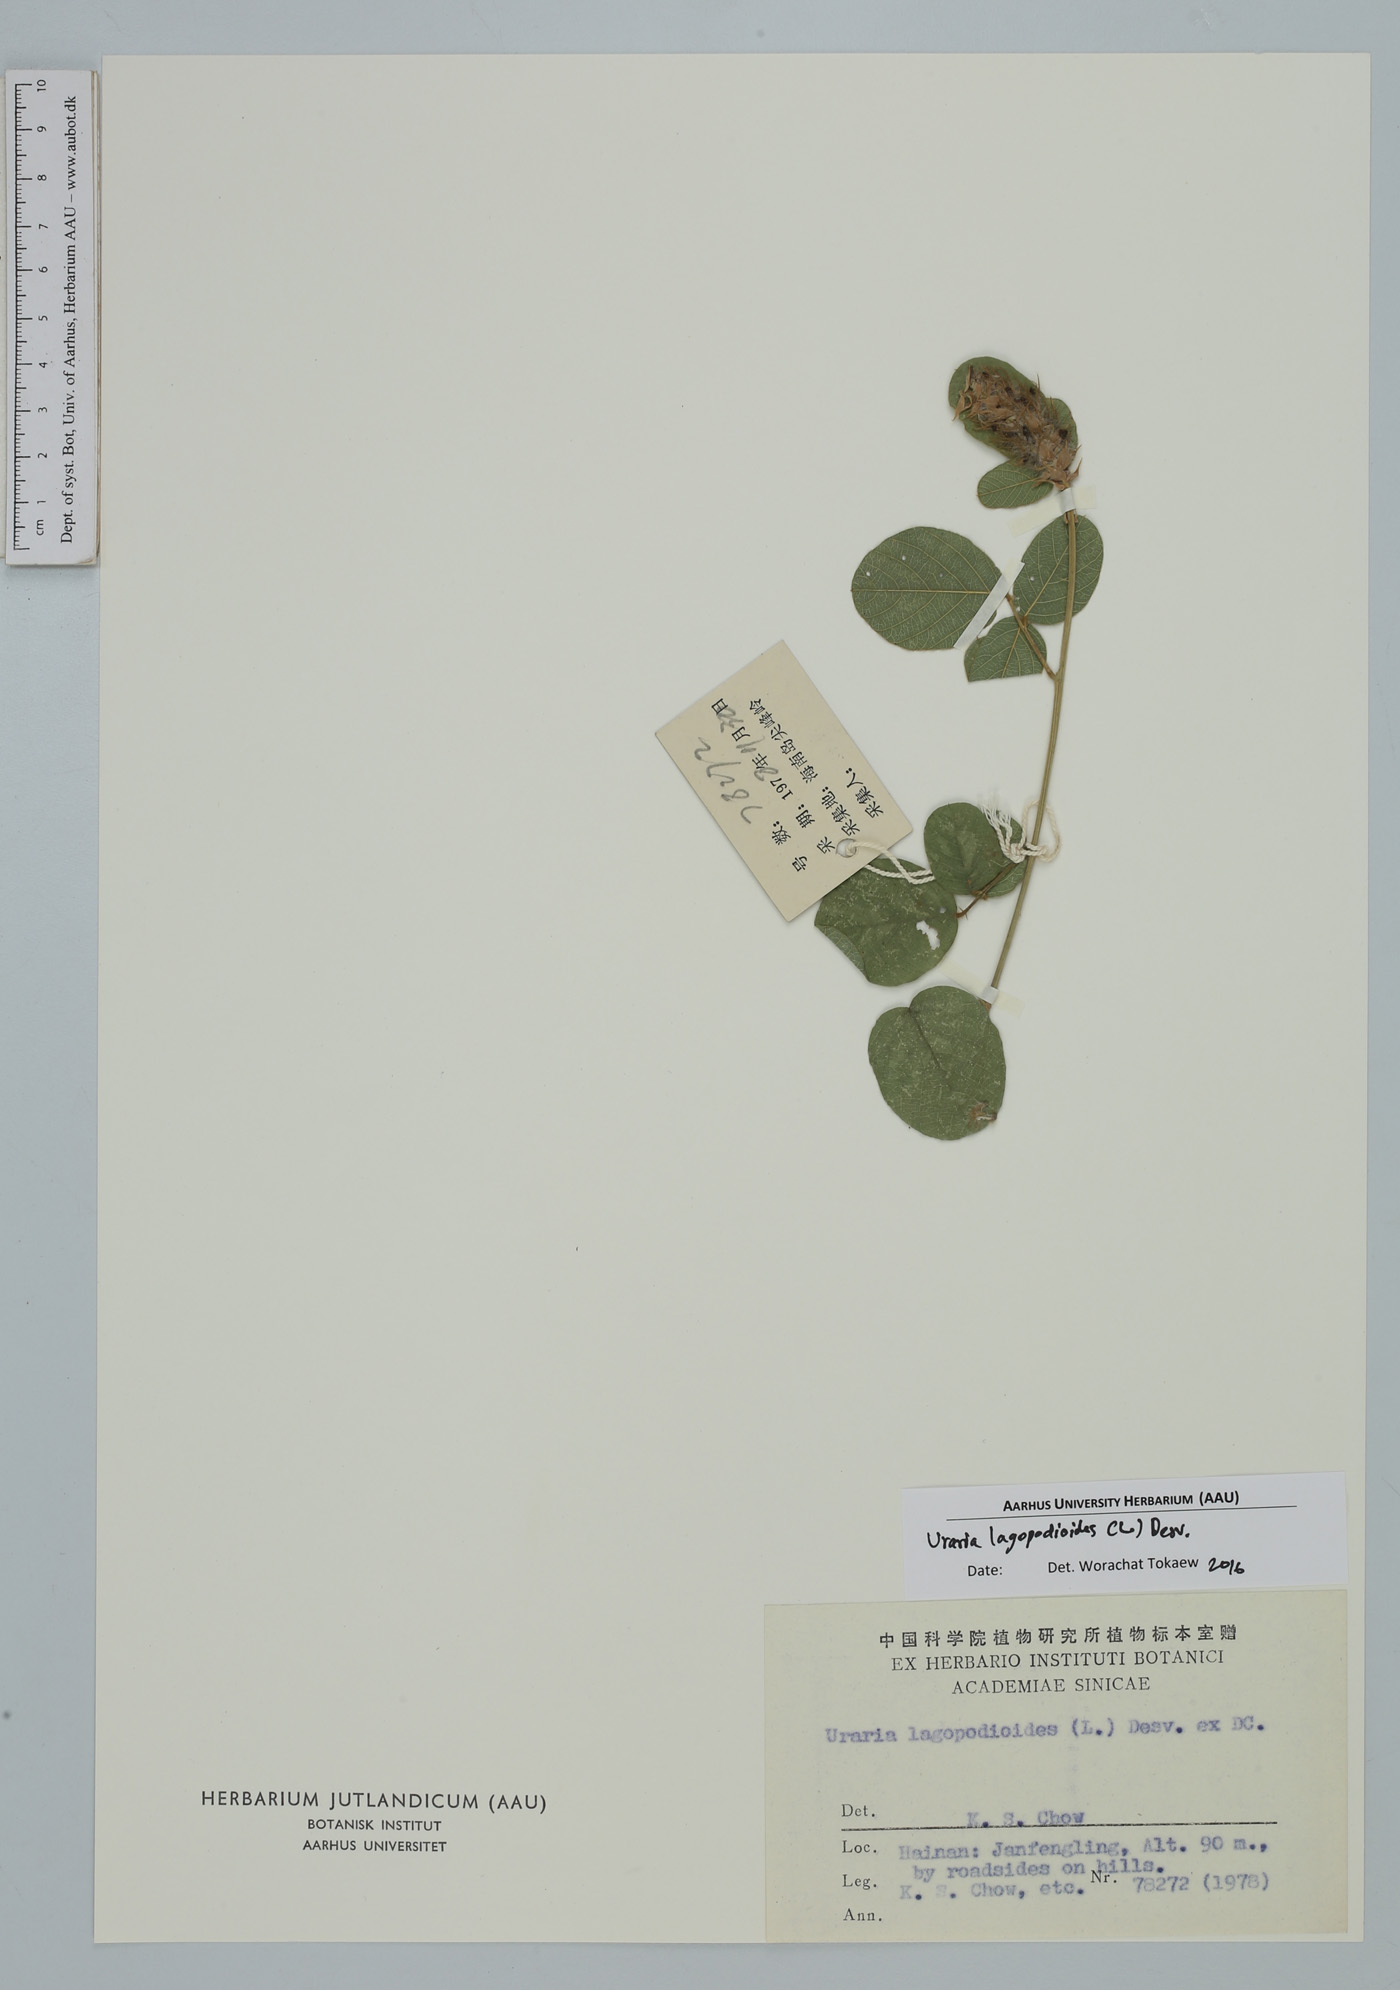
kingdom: Plantae
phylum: Tracheophyta
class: Magnoliopsida
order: Fabales
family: Fabaceae
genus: Uraria
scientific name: Uraria lagopodioides
